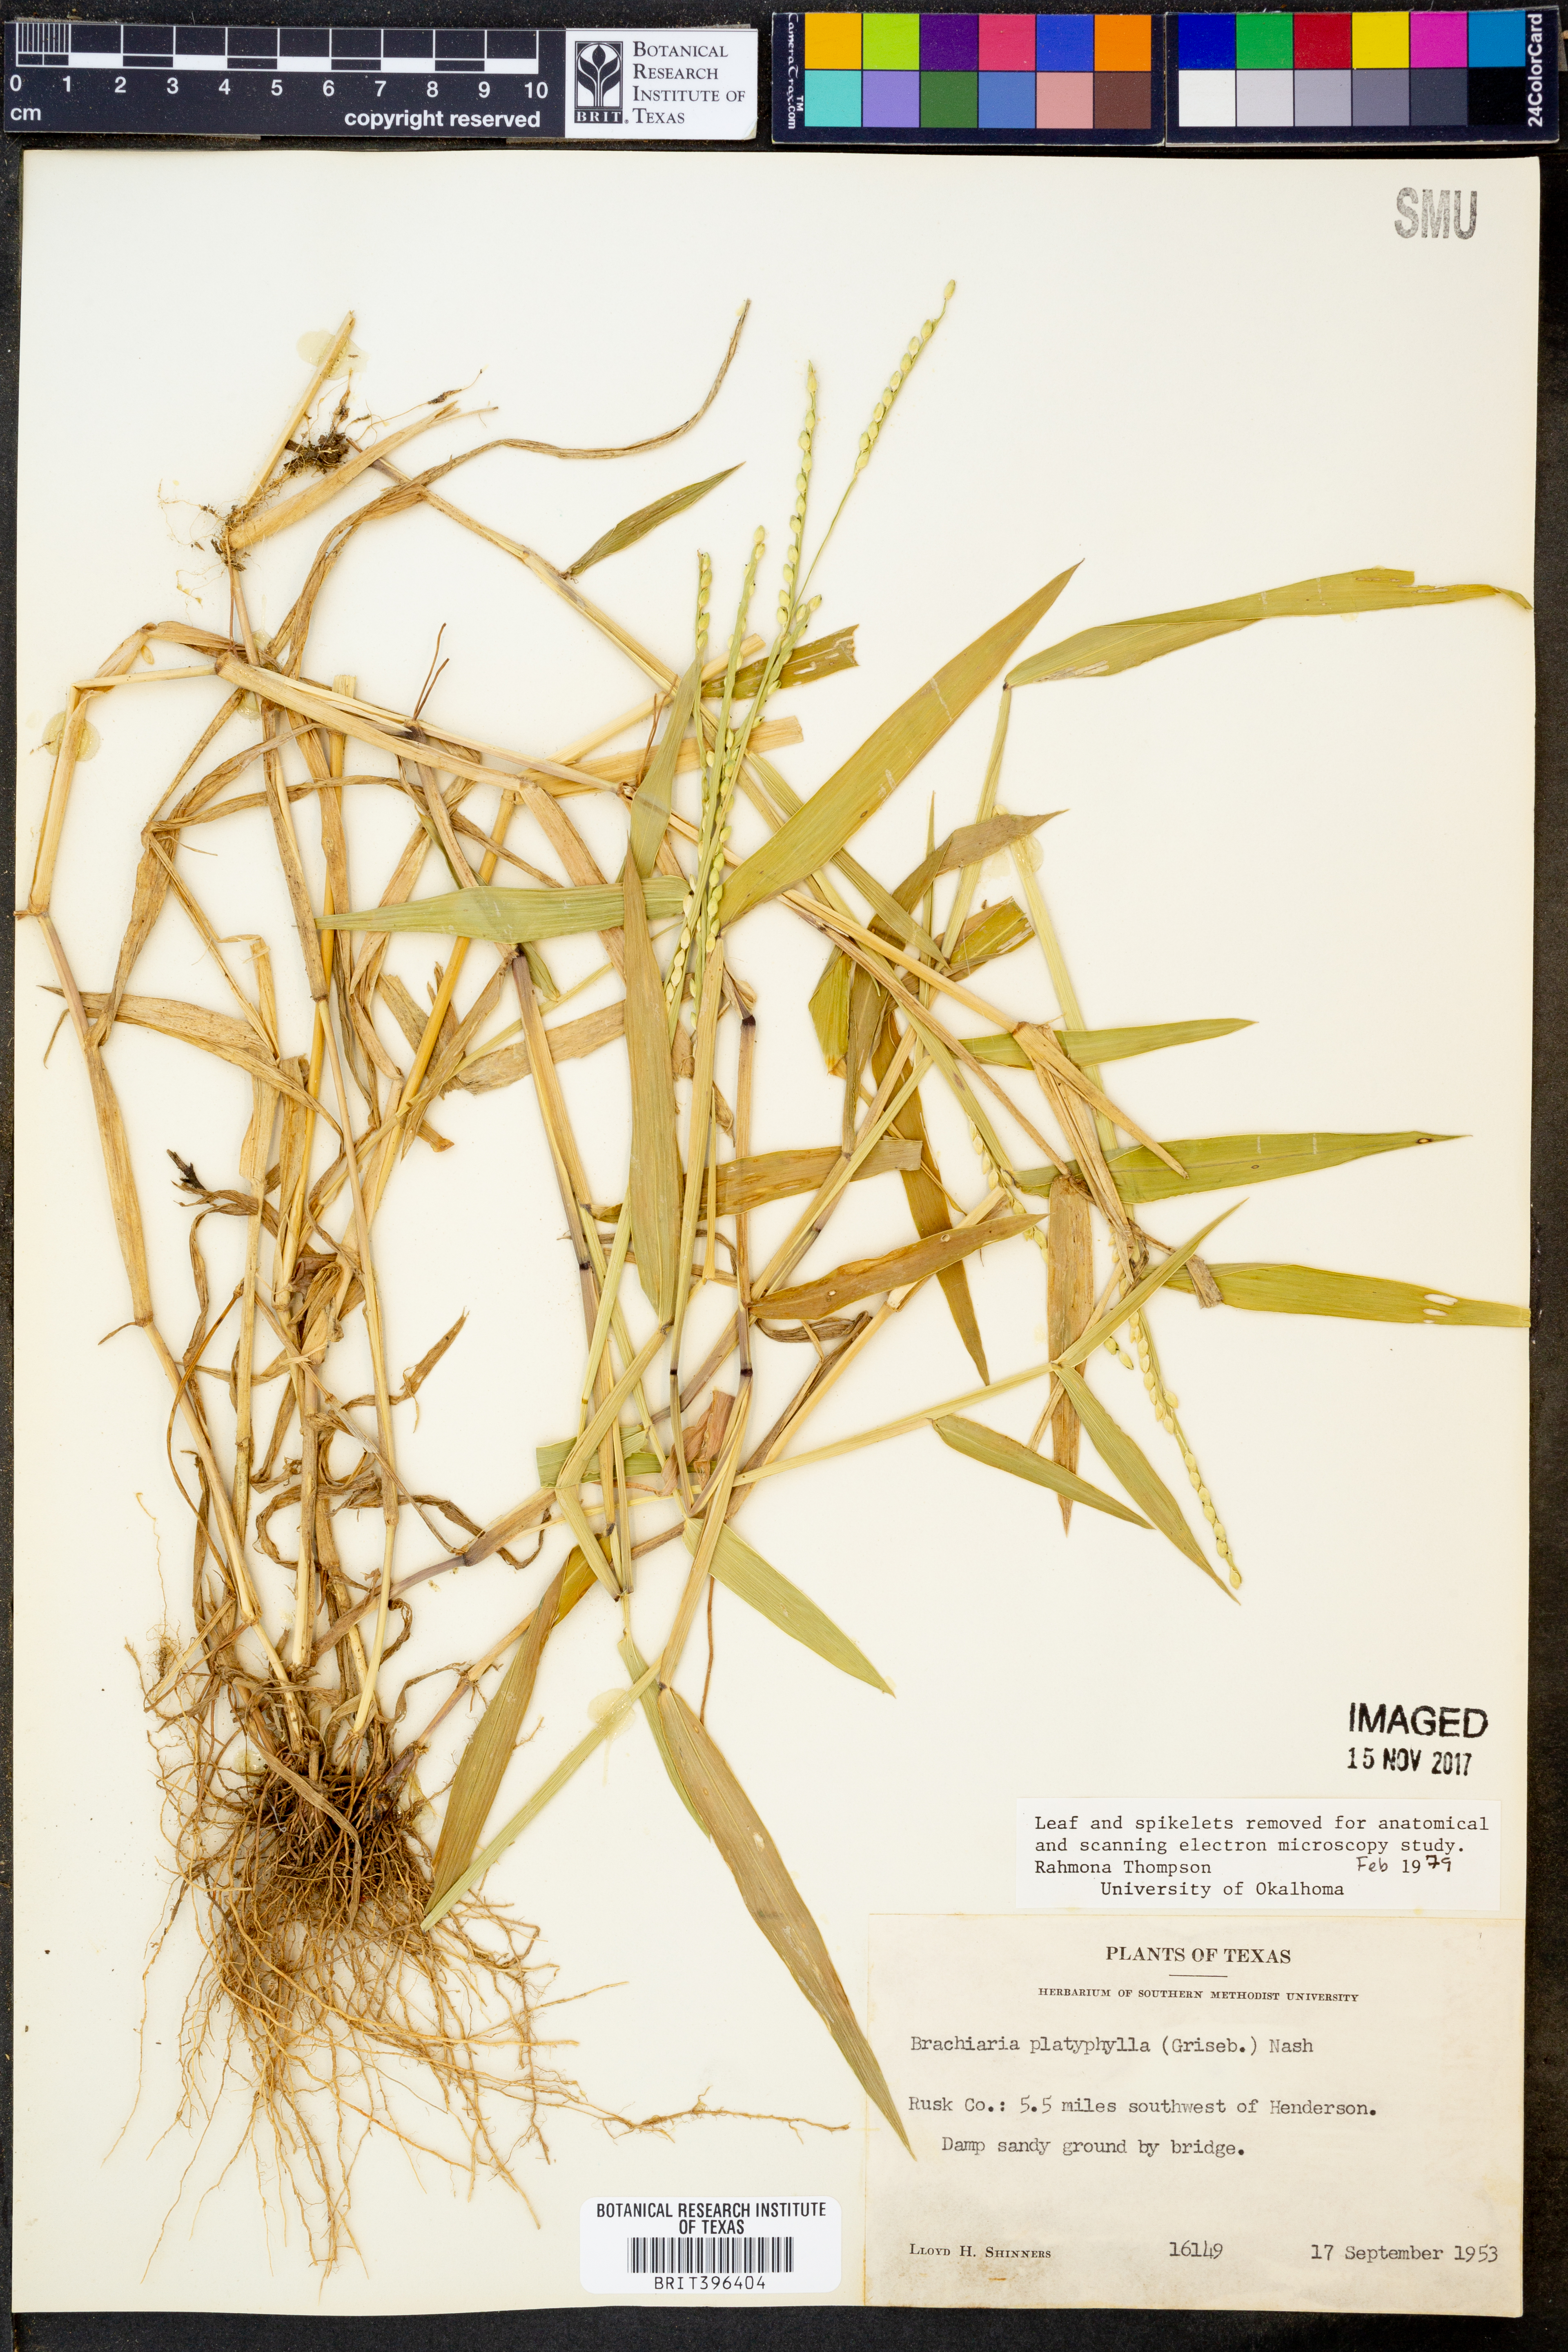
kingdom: Plantae
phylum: Tracheophyta
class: Liliopsida
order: Poales
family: Poaceae
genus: Urochloa
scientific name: Urochloa platyphylla
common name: White para grass
